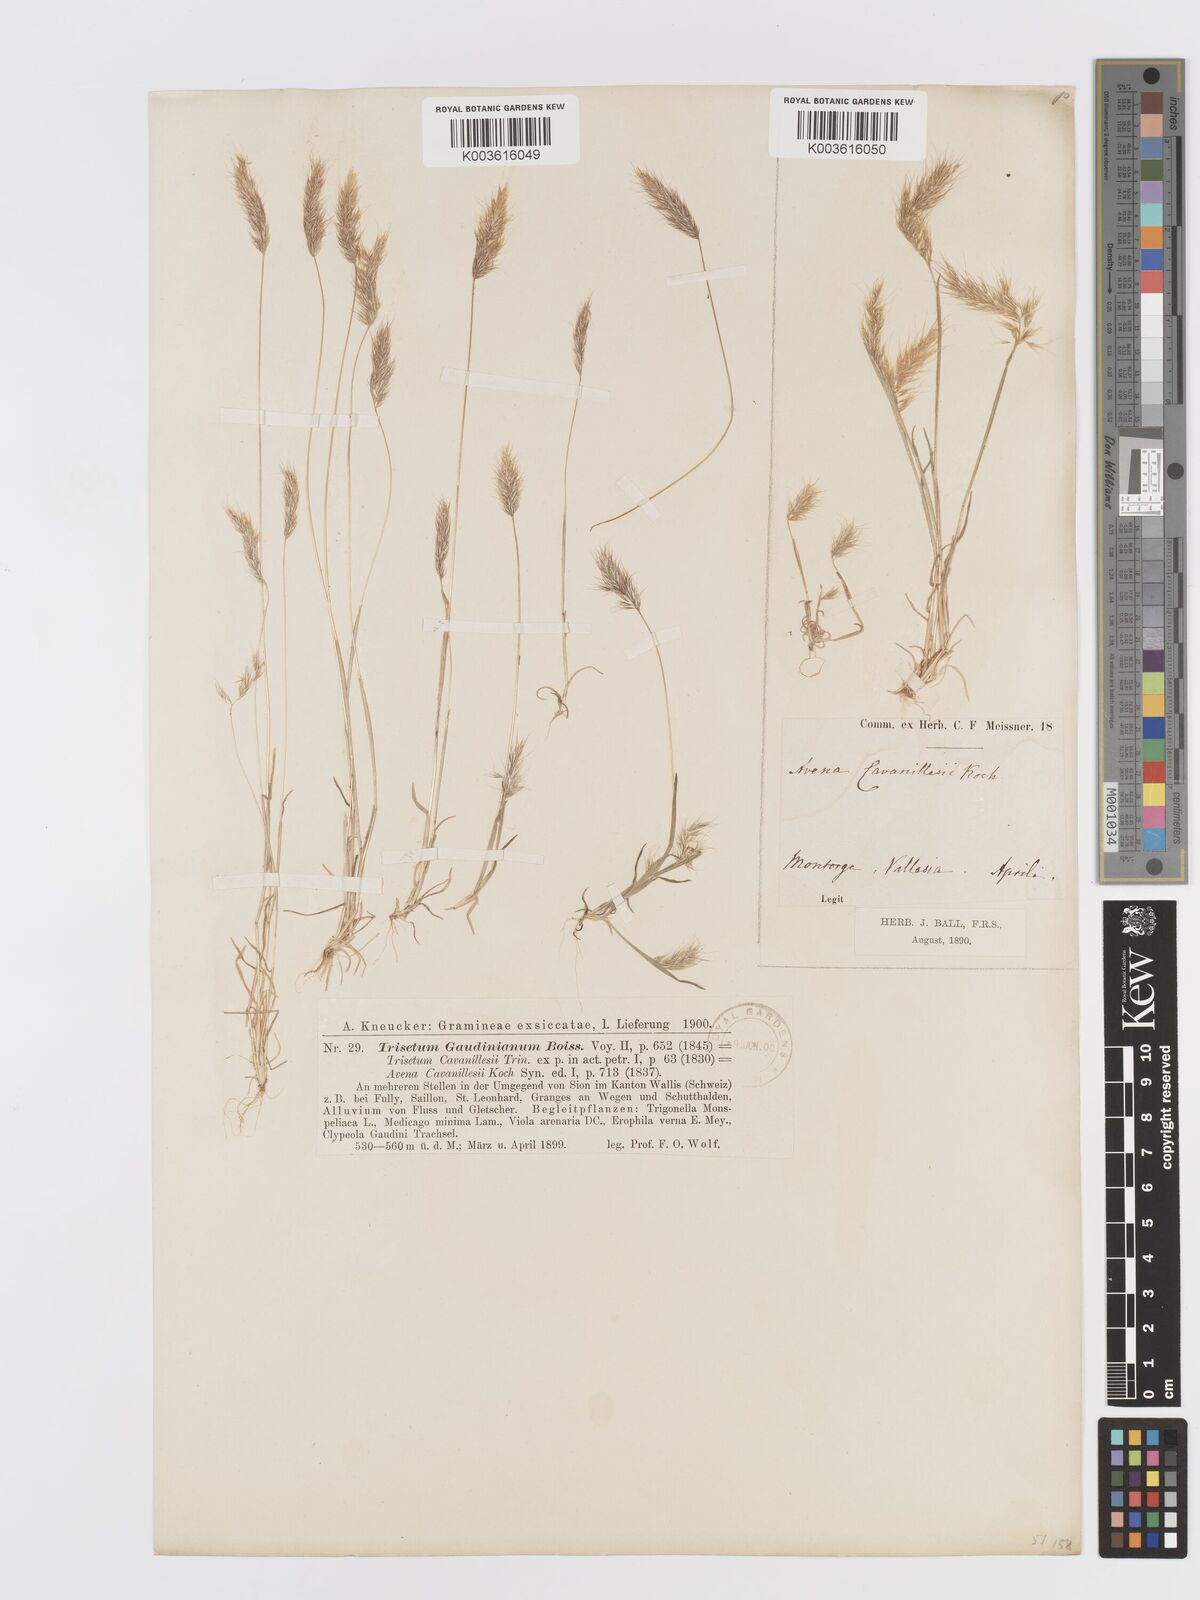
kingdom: Plantae
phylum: Tracheophyta
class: Liliopsida
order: Poales
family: Poaceae
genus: Trisetaria
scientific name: Trisetaria loeflingiana
